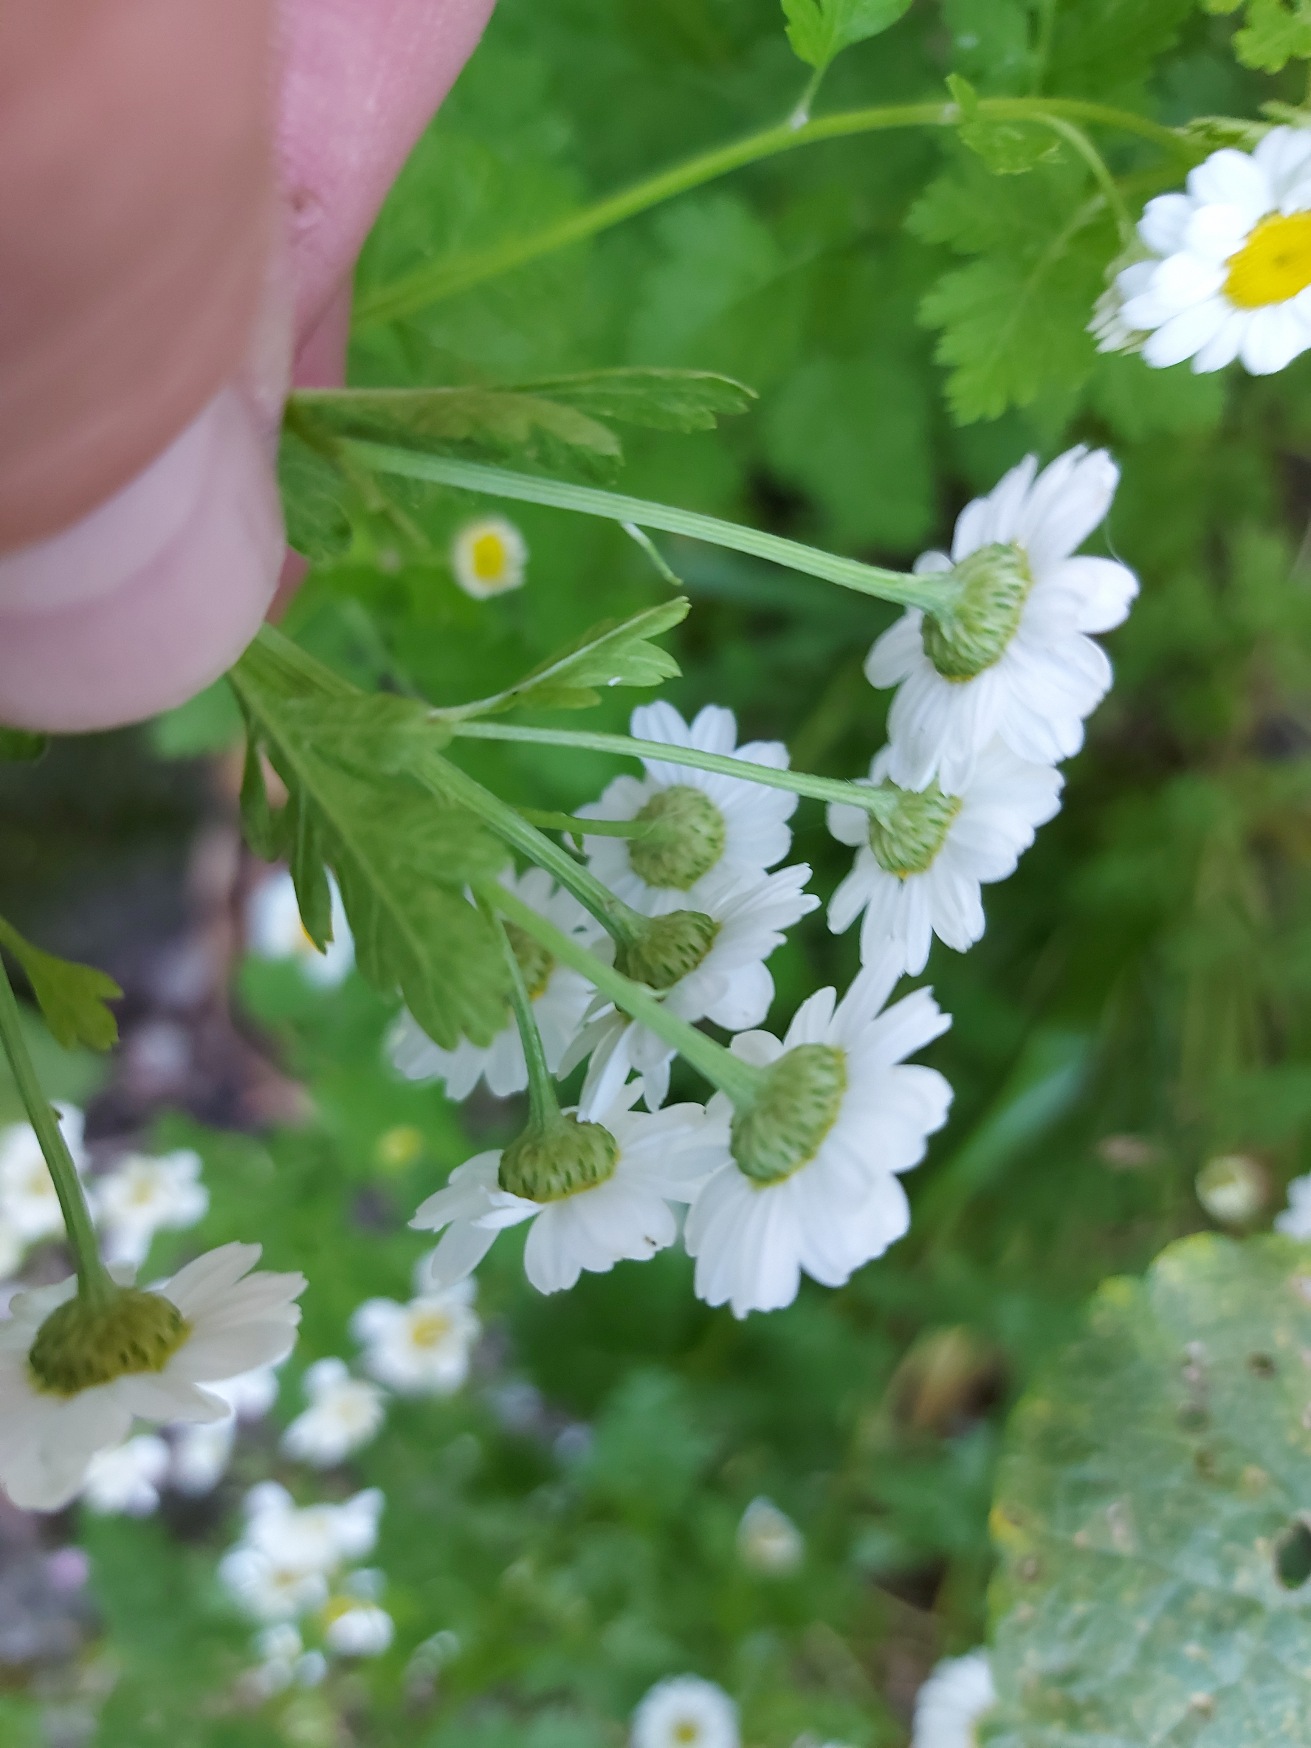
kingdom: Plantae
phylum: Tracheophyta
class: Magnoliopsida
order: Asterales
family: Asteraceae
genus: Tanacetum
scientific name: Tanacetum parthenium
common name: Matrem
